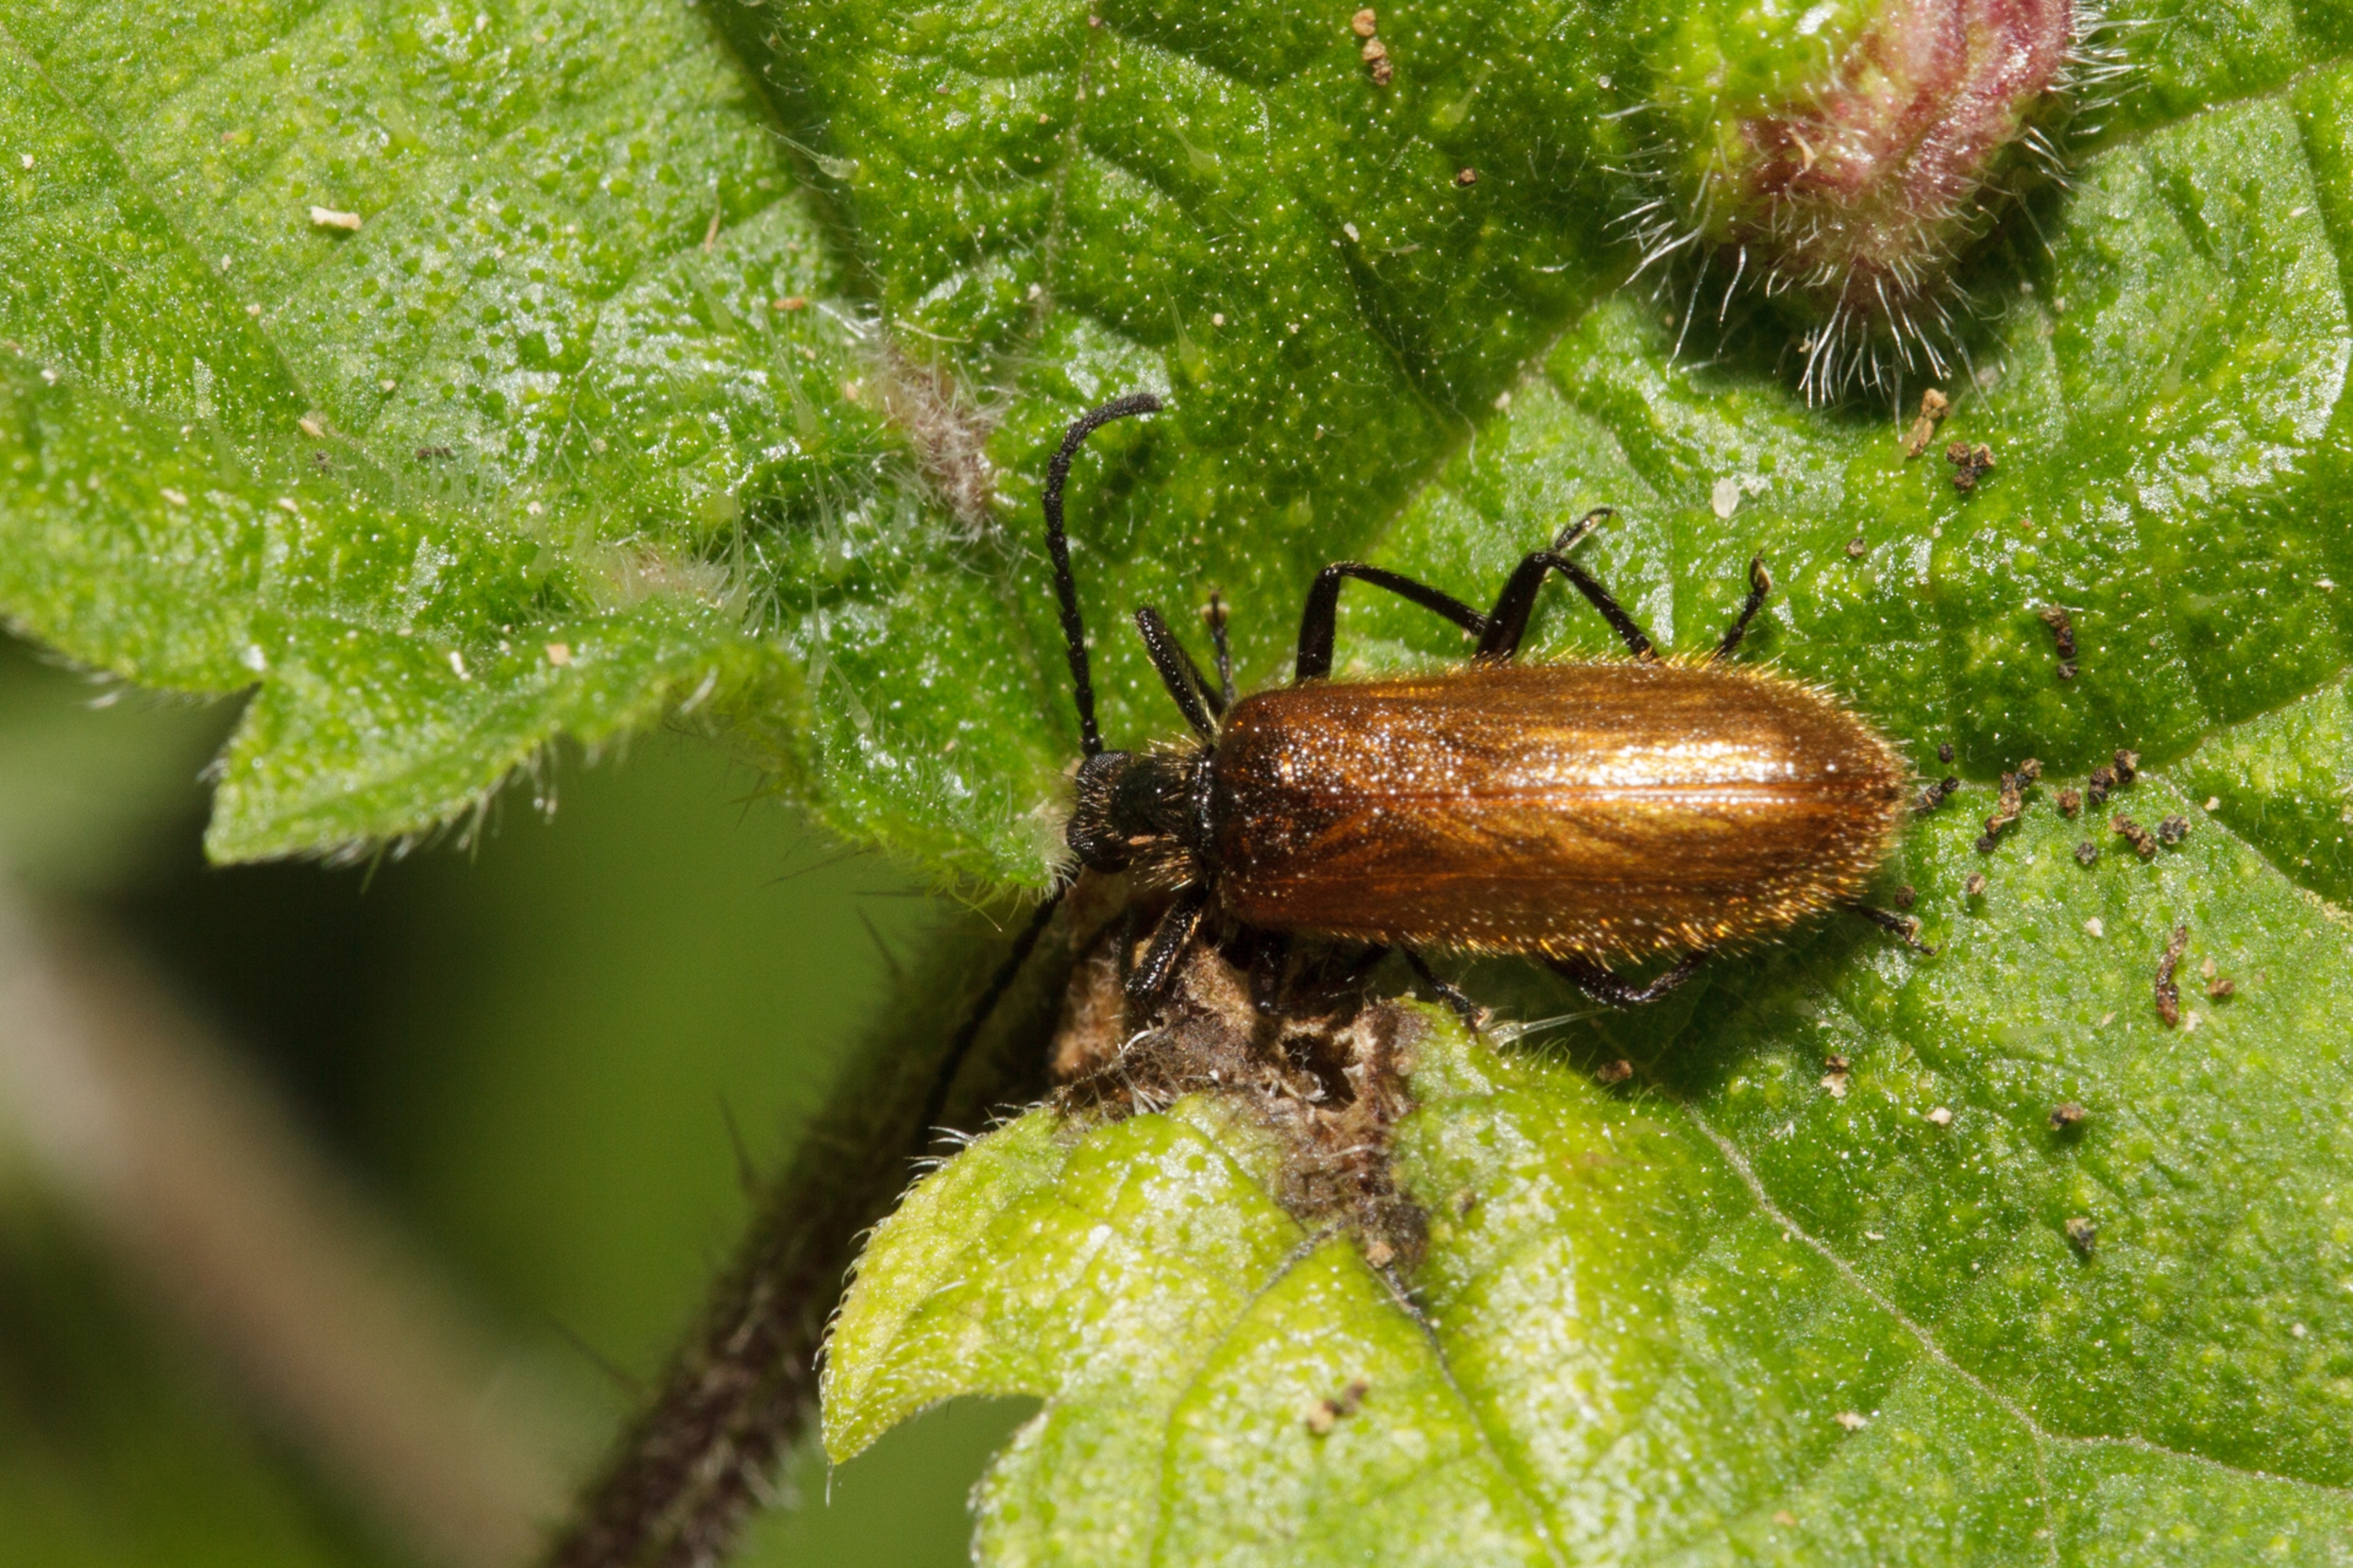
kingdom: Animalia
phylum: Arthropoda
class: Insecta
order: Coleoptera
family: Tenebrionidae
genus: Lagria
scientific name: Lagria hirta
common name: Håret skyggebille
